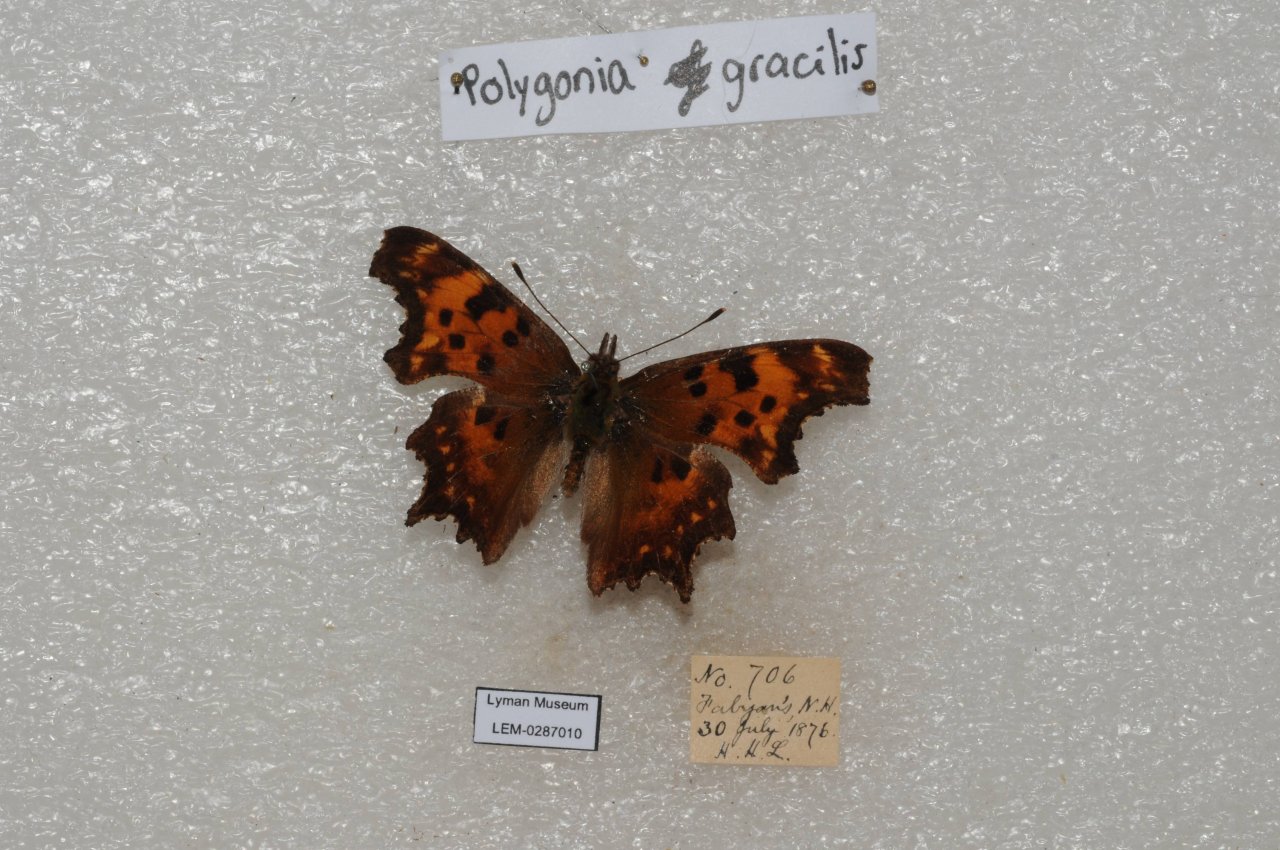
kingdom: Animalia
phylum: Arthropoda
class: Insecta
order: Lepidoptera
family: Nymphalidae
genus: Polygonia
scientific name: Polygonia gracilis
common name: Hoary Comma
